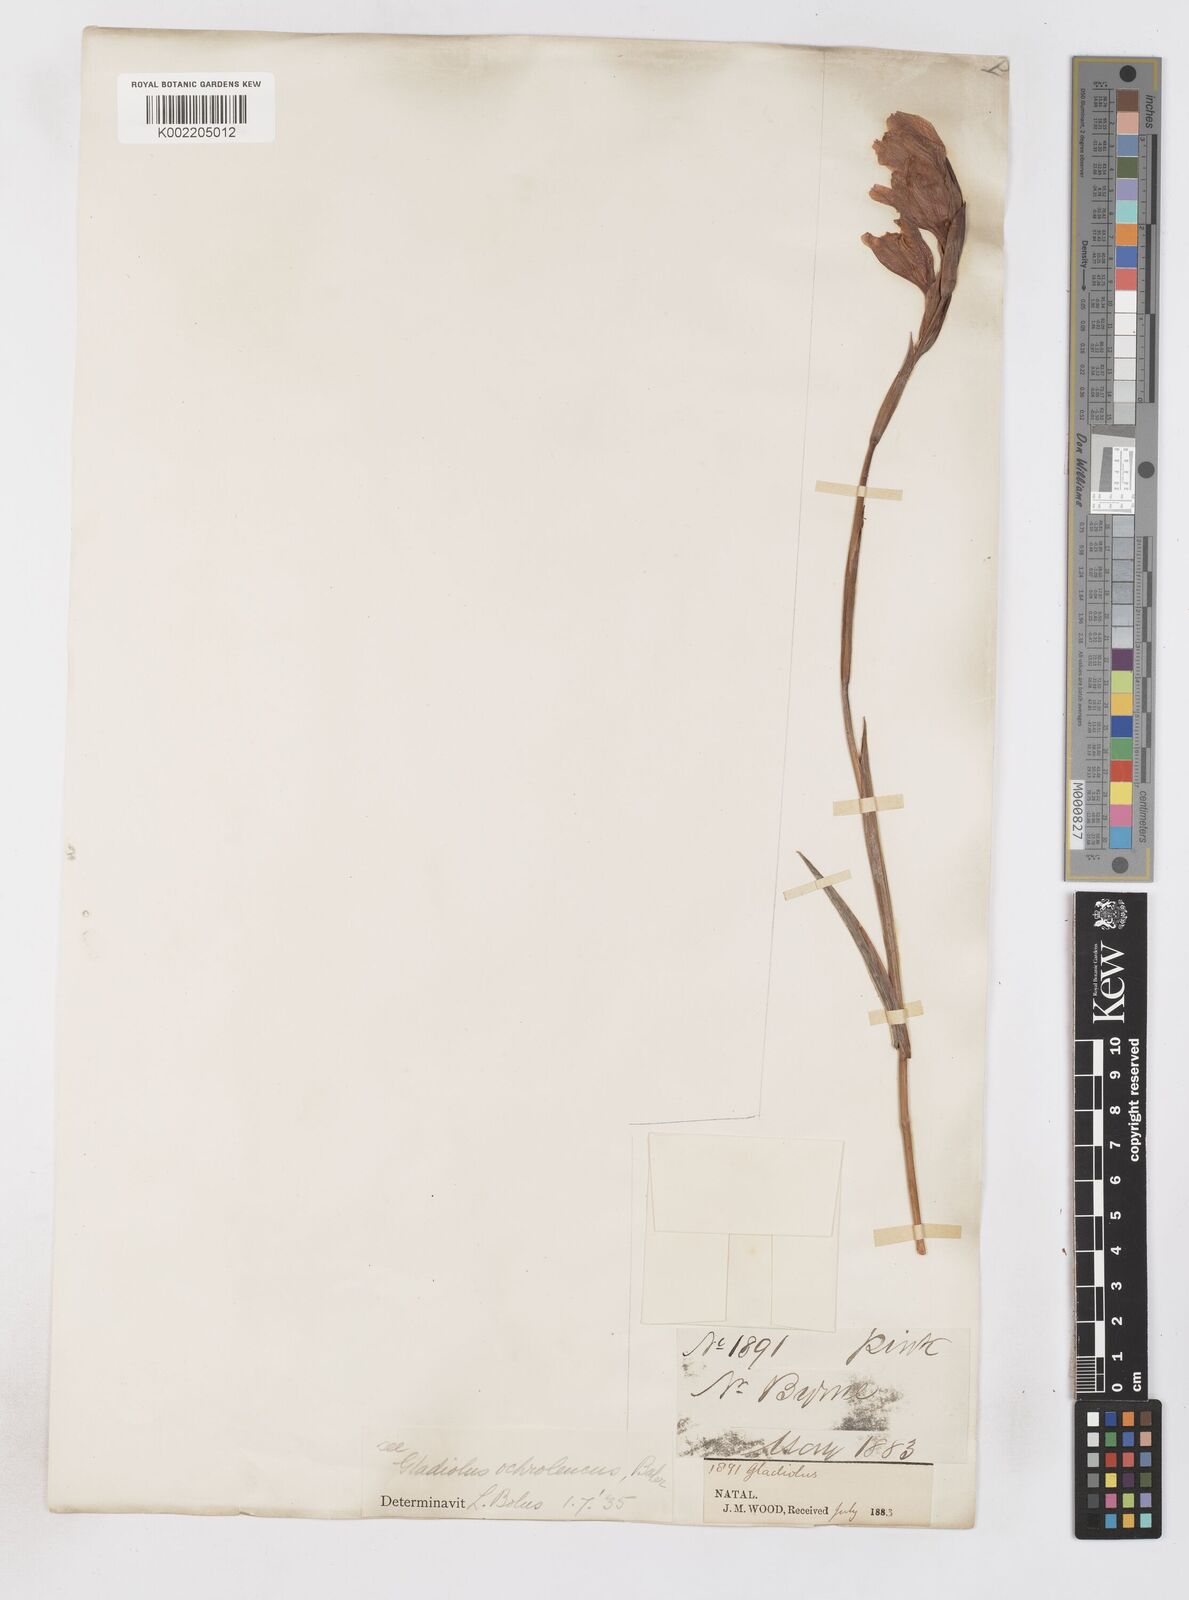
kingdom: Plantae
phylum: Tracheophyta
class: Liliopsida
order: Asparagales
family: Iridaceae
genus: Gladiolus
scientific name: Gladiolus ochroleucus
